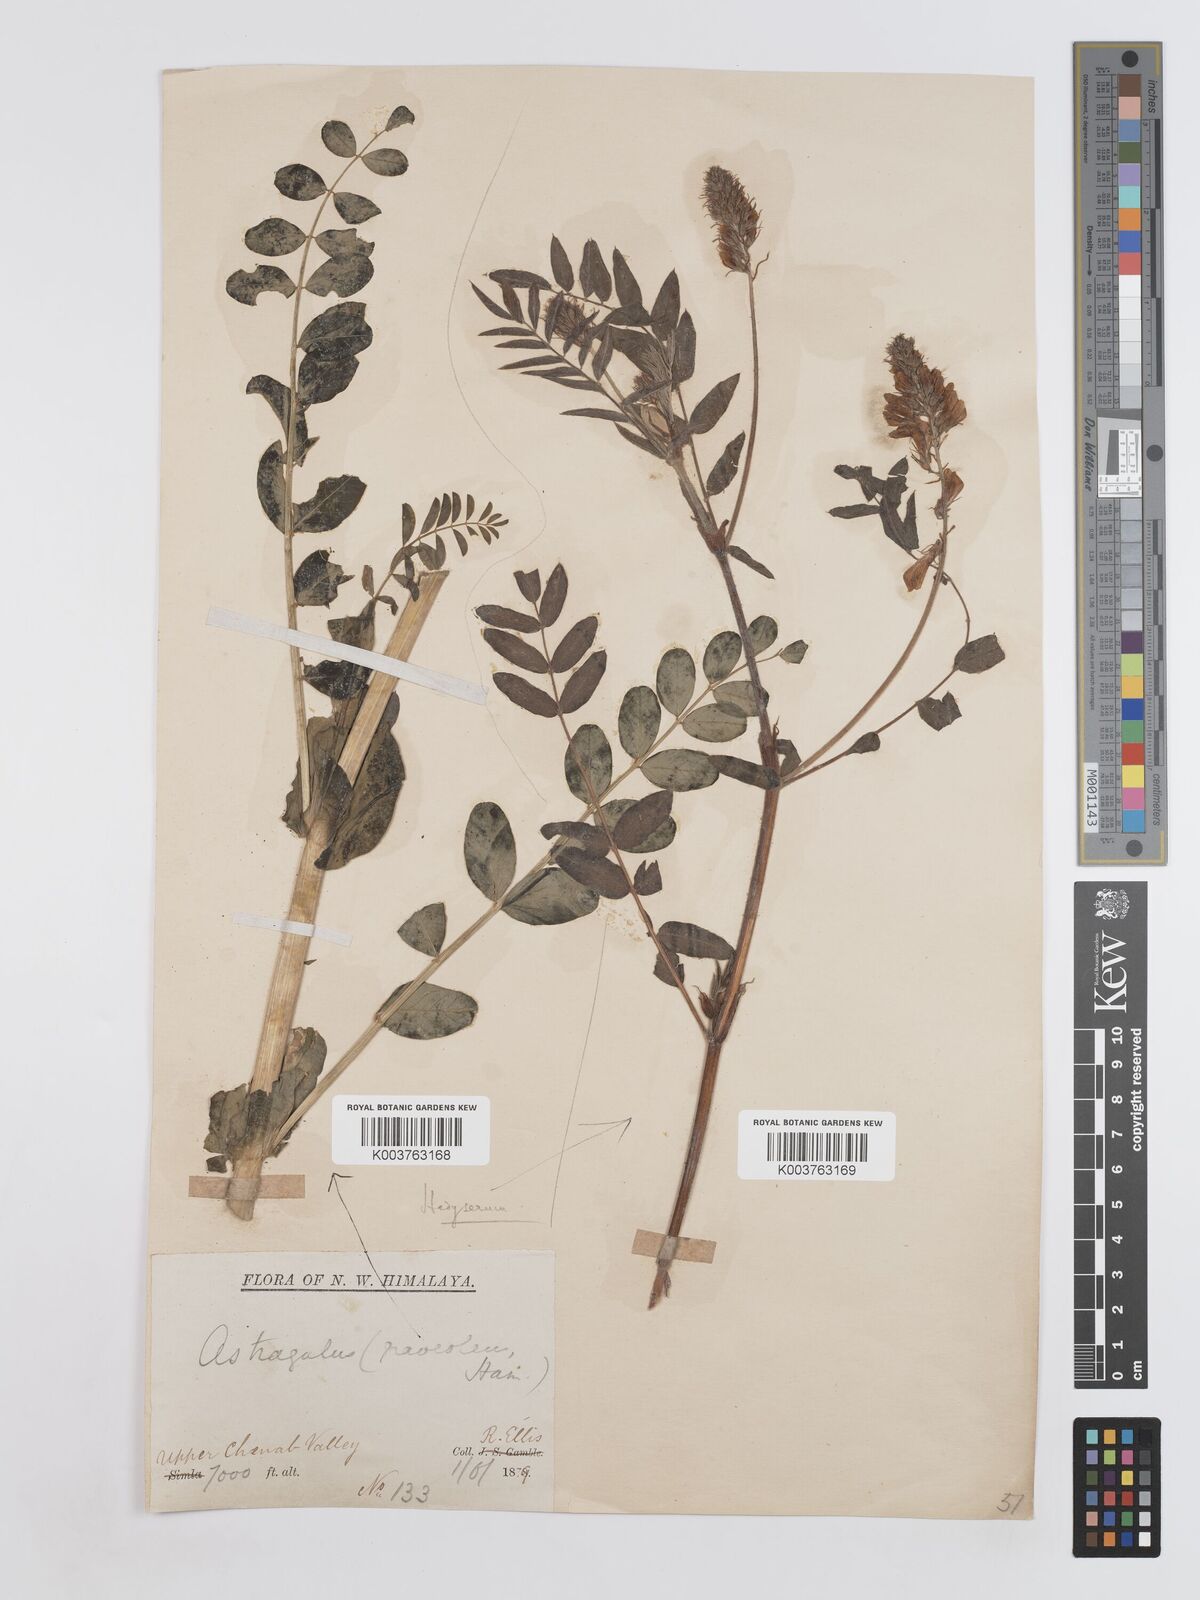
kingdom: Plantae
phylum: Tracheophyta
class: Magnoliopsida
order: Fabales
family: Fabaceae
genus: Hedysarum
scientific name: Hedysarum
